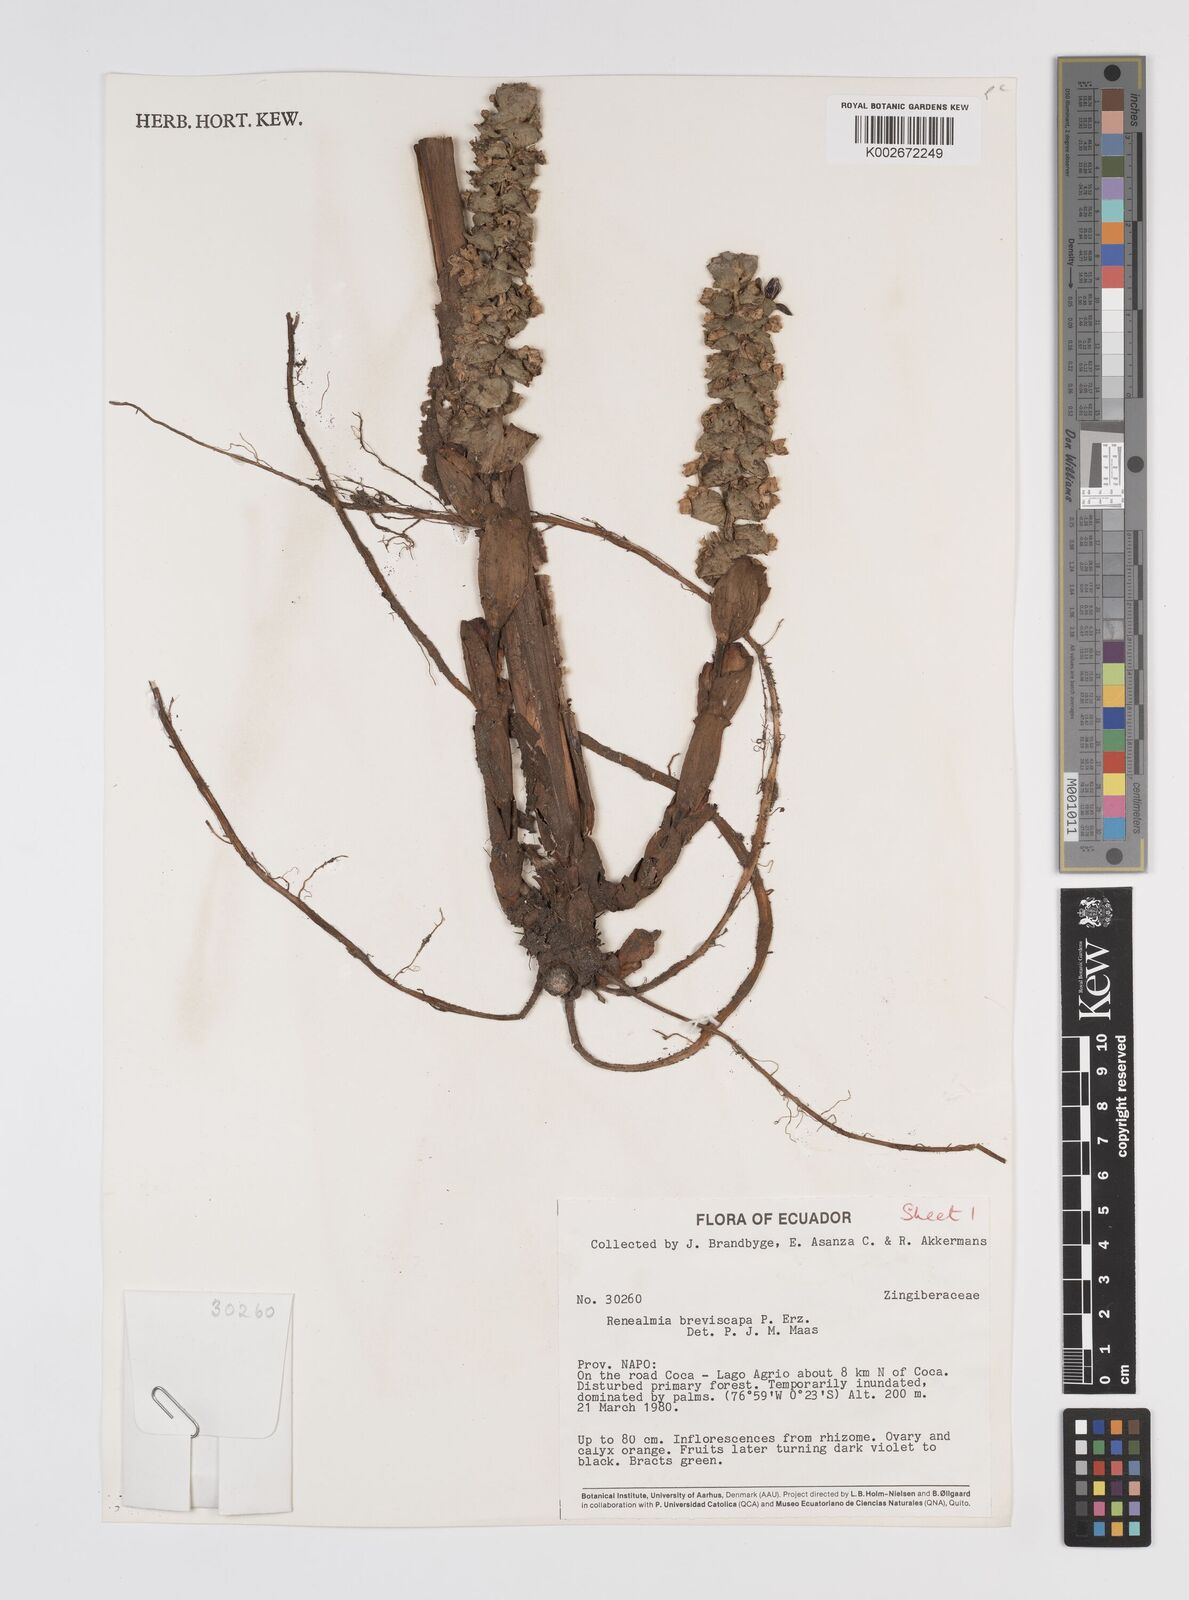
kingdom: Plantae
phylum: Tracheophyta
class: Liliopsida
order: Zingiberales
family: Zingiberaceae
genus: Renealmia
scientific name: Renealmia breviscapa
